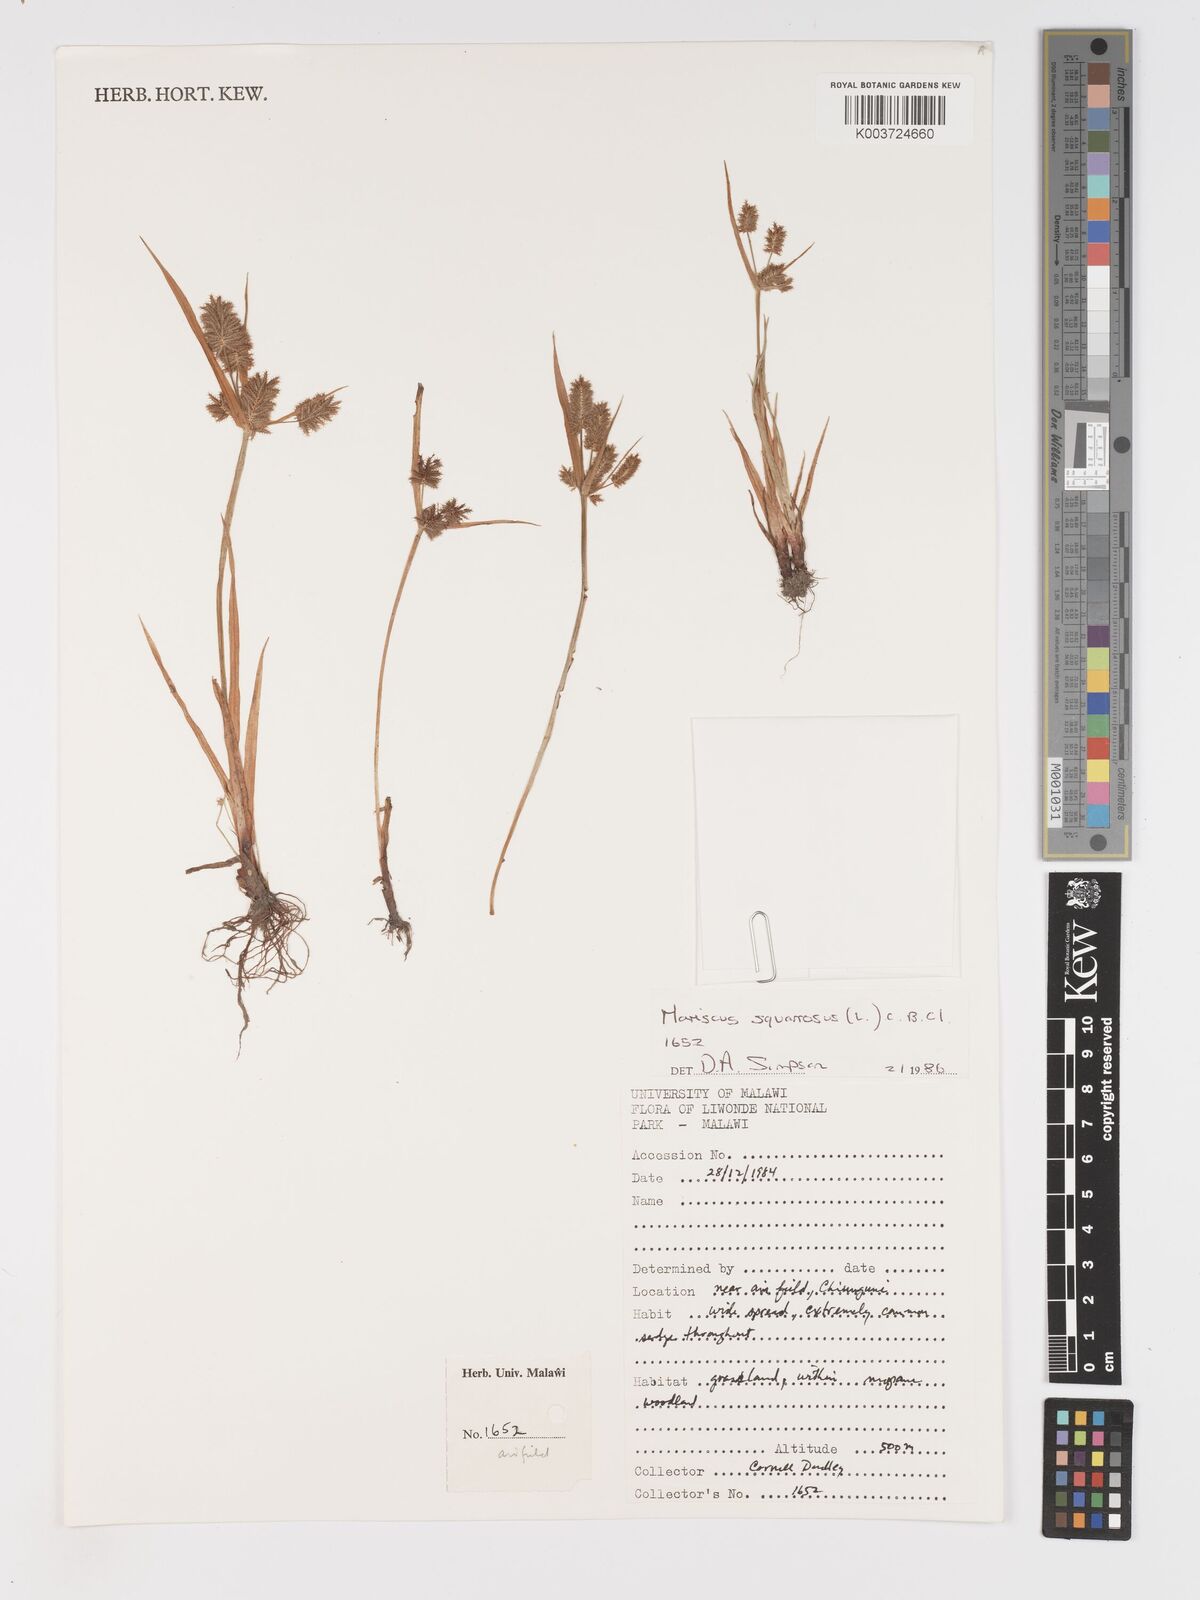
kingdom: Plantae
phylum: Tracheophyta
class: Liliopsida
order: Poales
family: Cyperaceae
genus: Cyperus
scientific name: Cyperus squarrosus
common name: Awned cyperus
